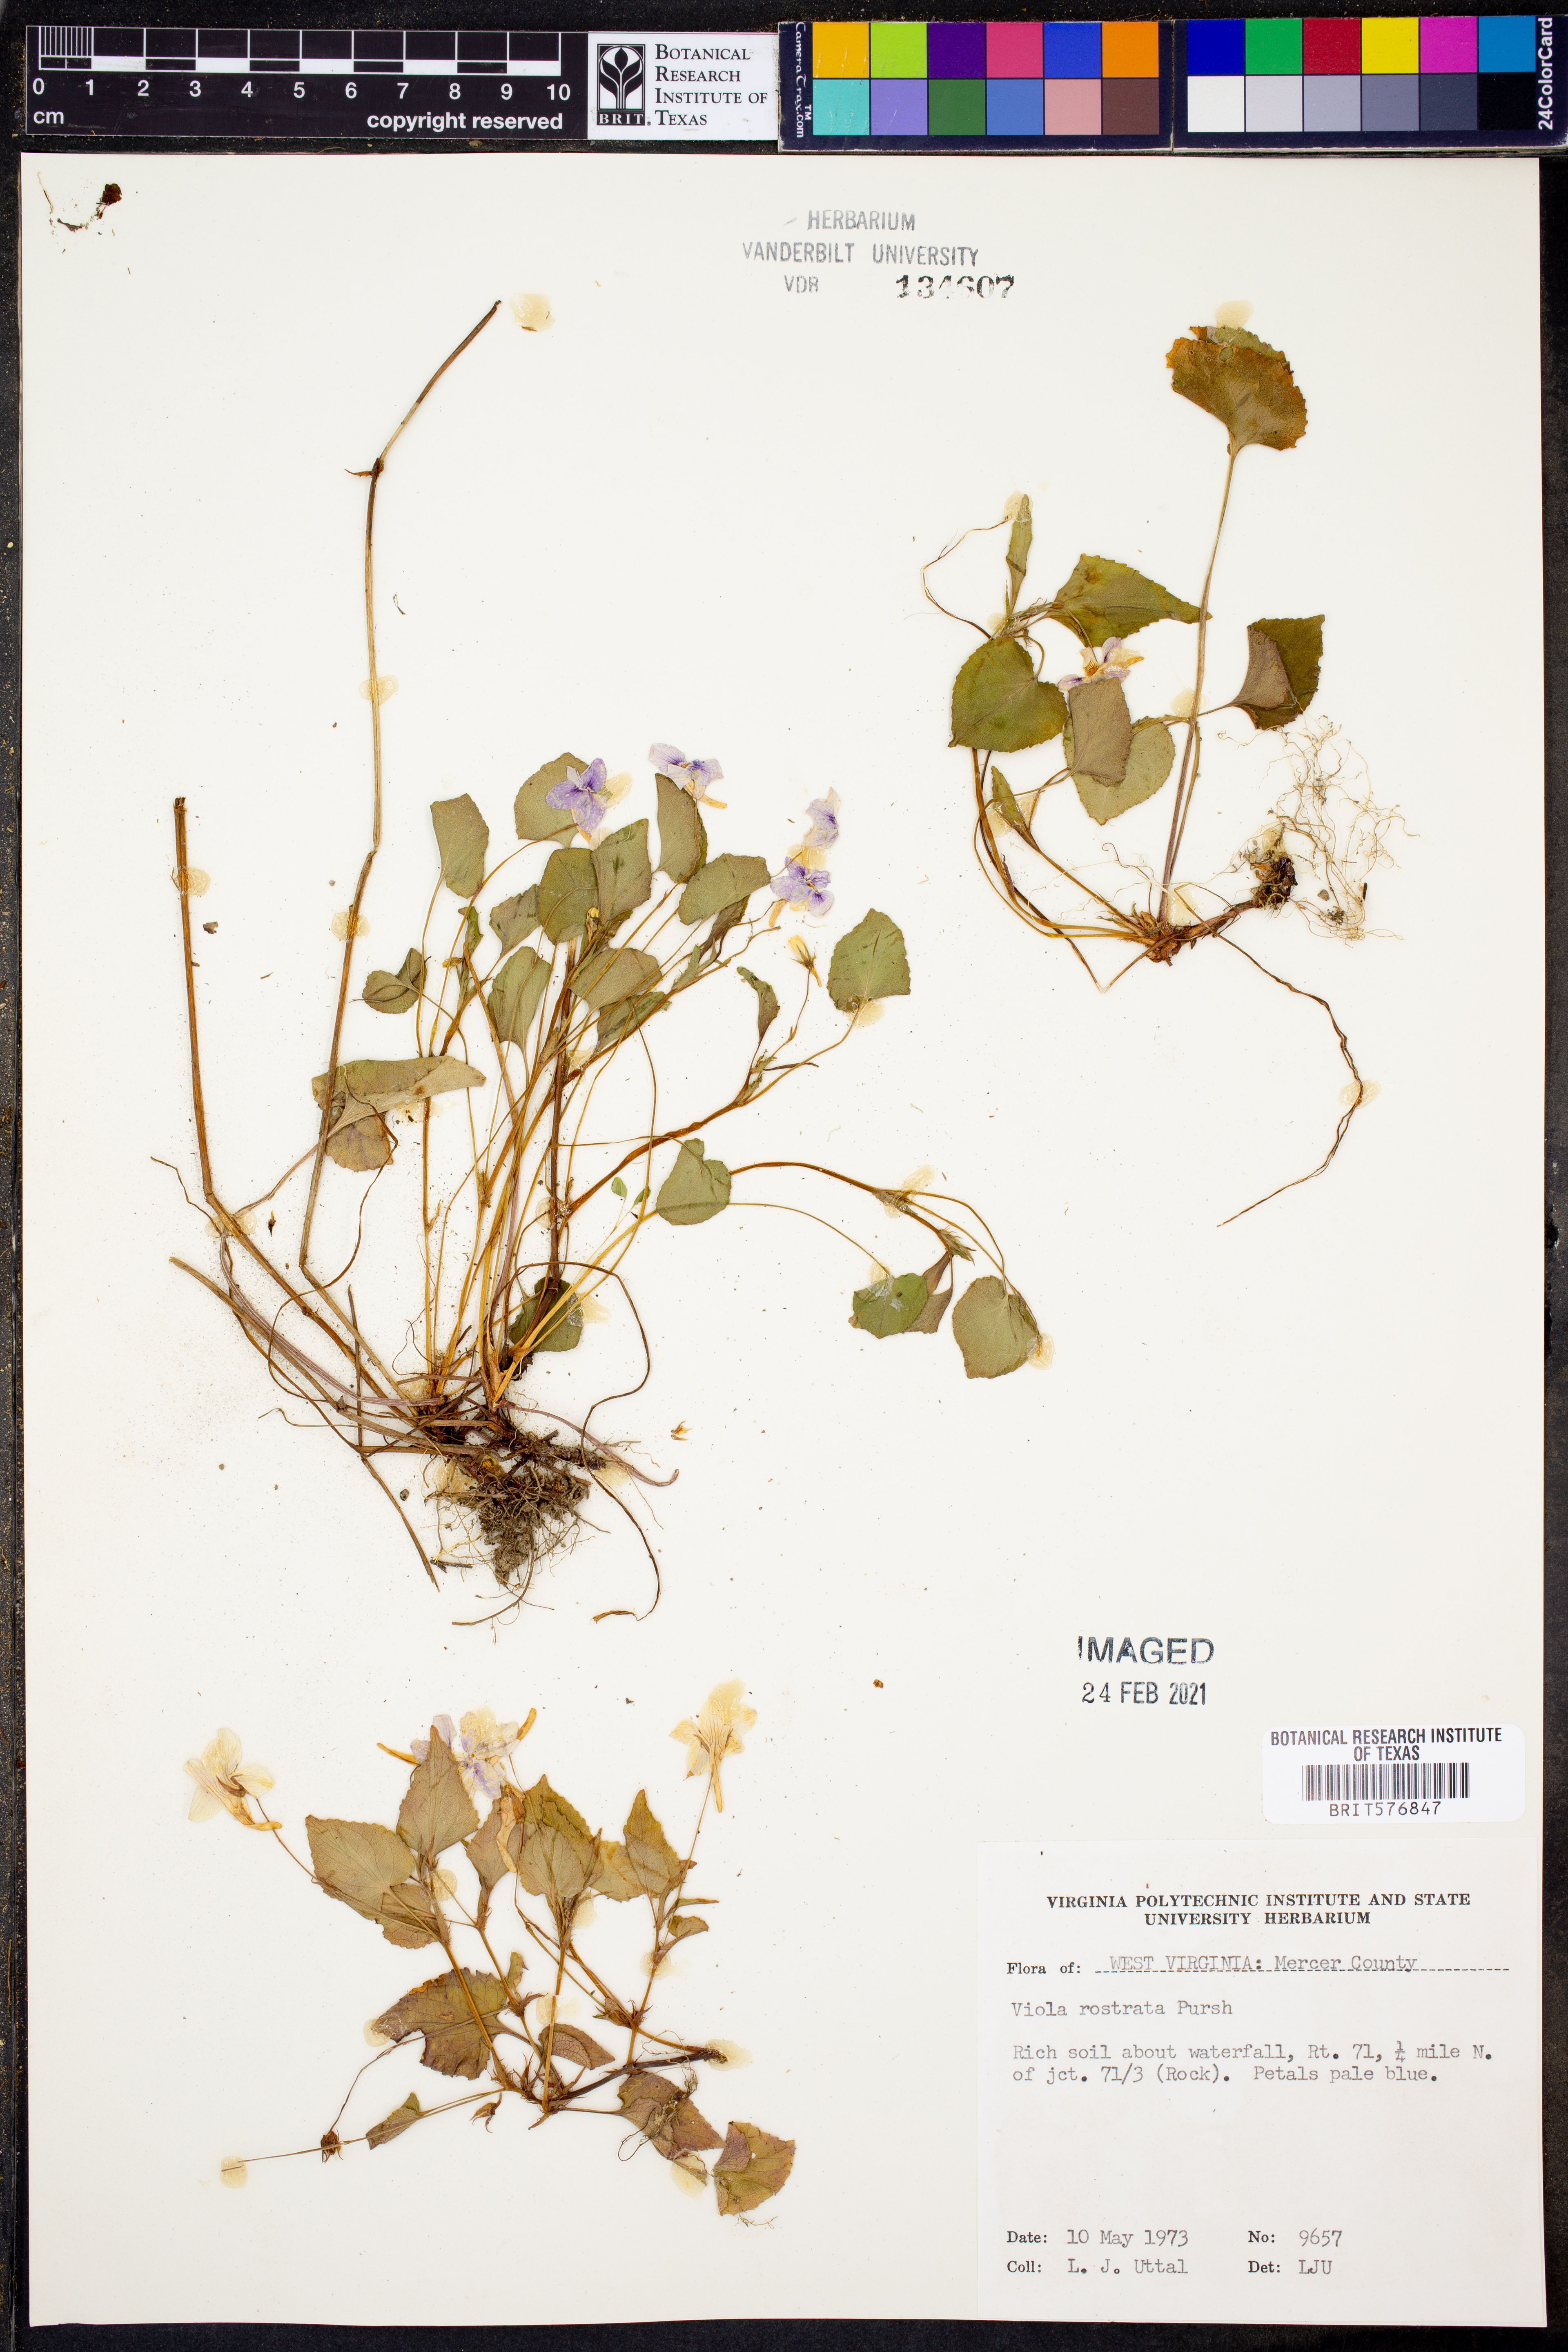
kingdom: Plantae
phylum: Tracheophyta
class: Magnoliopsida
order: Malpighiales
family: Violaceae
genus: Viola
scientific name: Viola rostrata
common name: Long-spur violet
